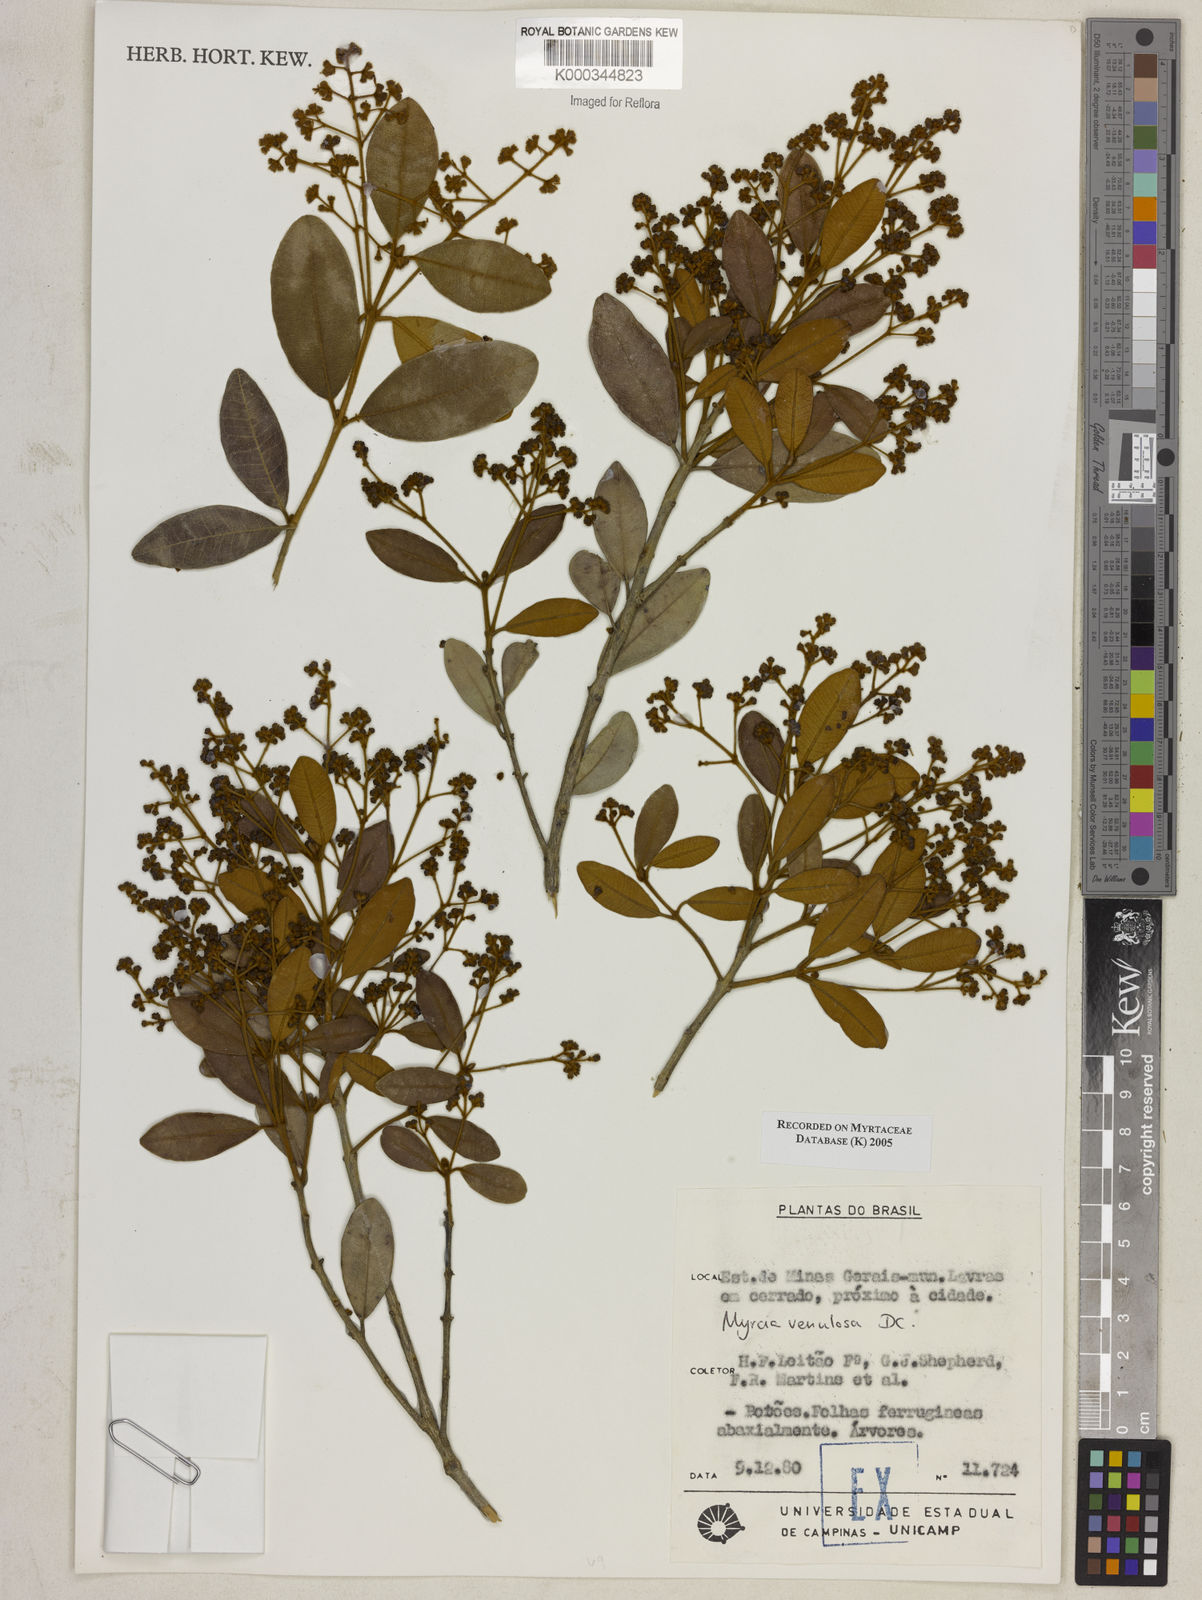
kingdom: Plantae
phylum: Tracheophyta
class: Magnoliopsida
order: Myrtales
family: Myrtaceae
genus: Myrcia
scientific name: Myrcia venulosa
